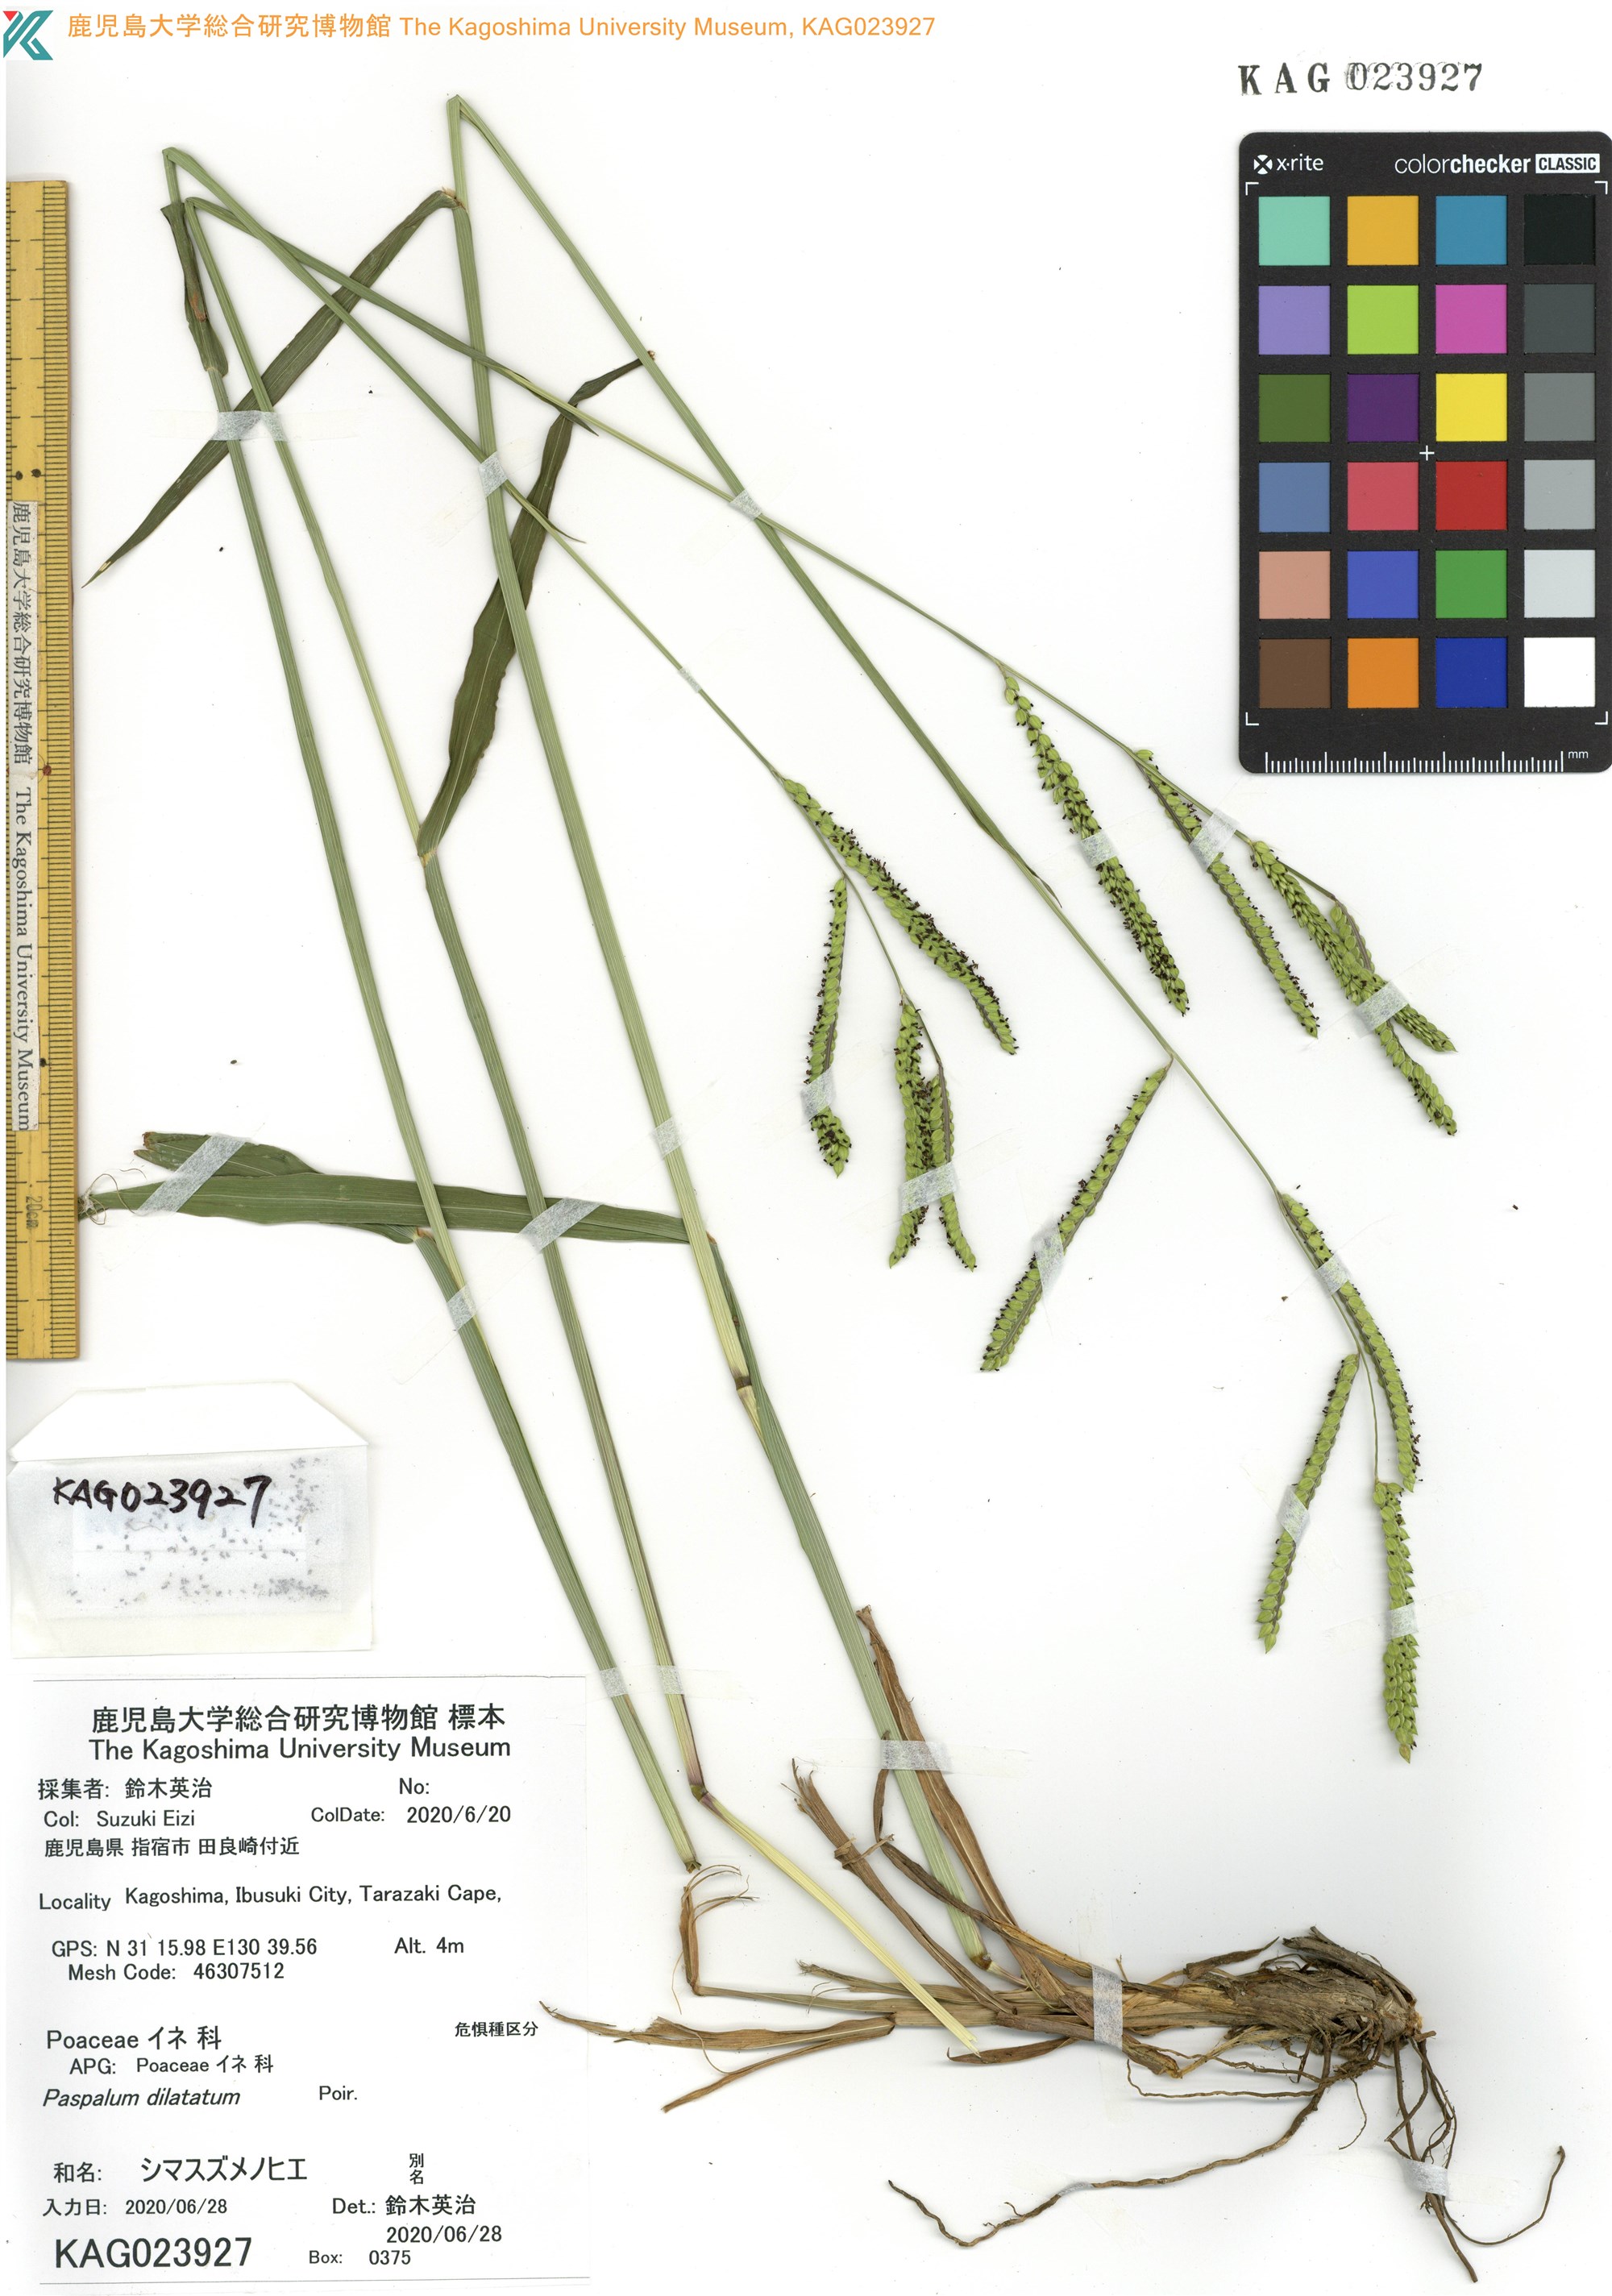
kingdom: Plantae
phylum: Tracheophyta
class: Liliopsida
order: Poales
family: Poaceae
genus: Paspalum
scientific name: Paspalum dilatatum
